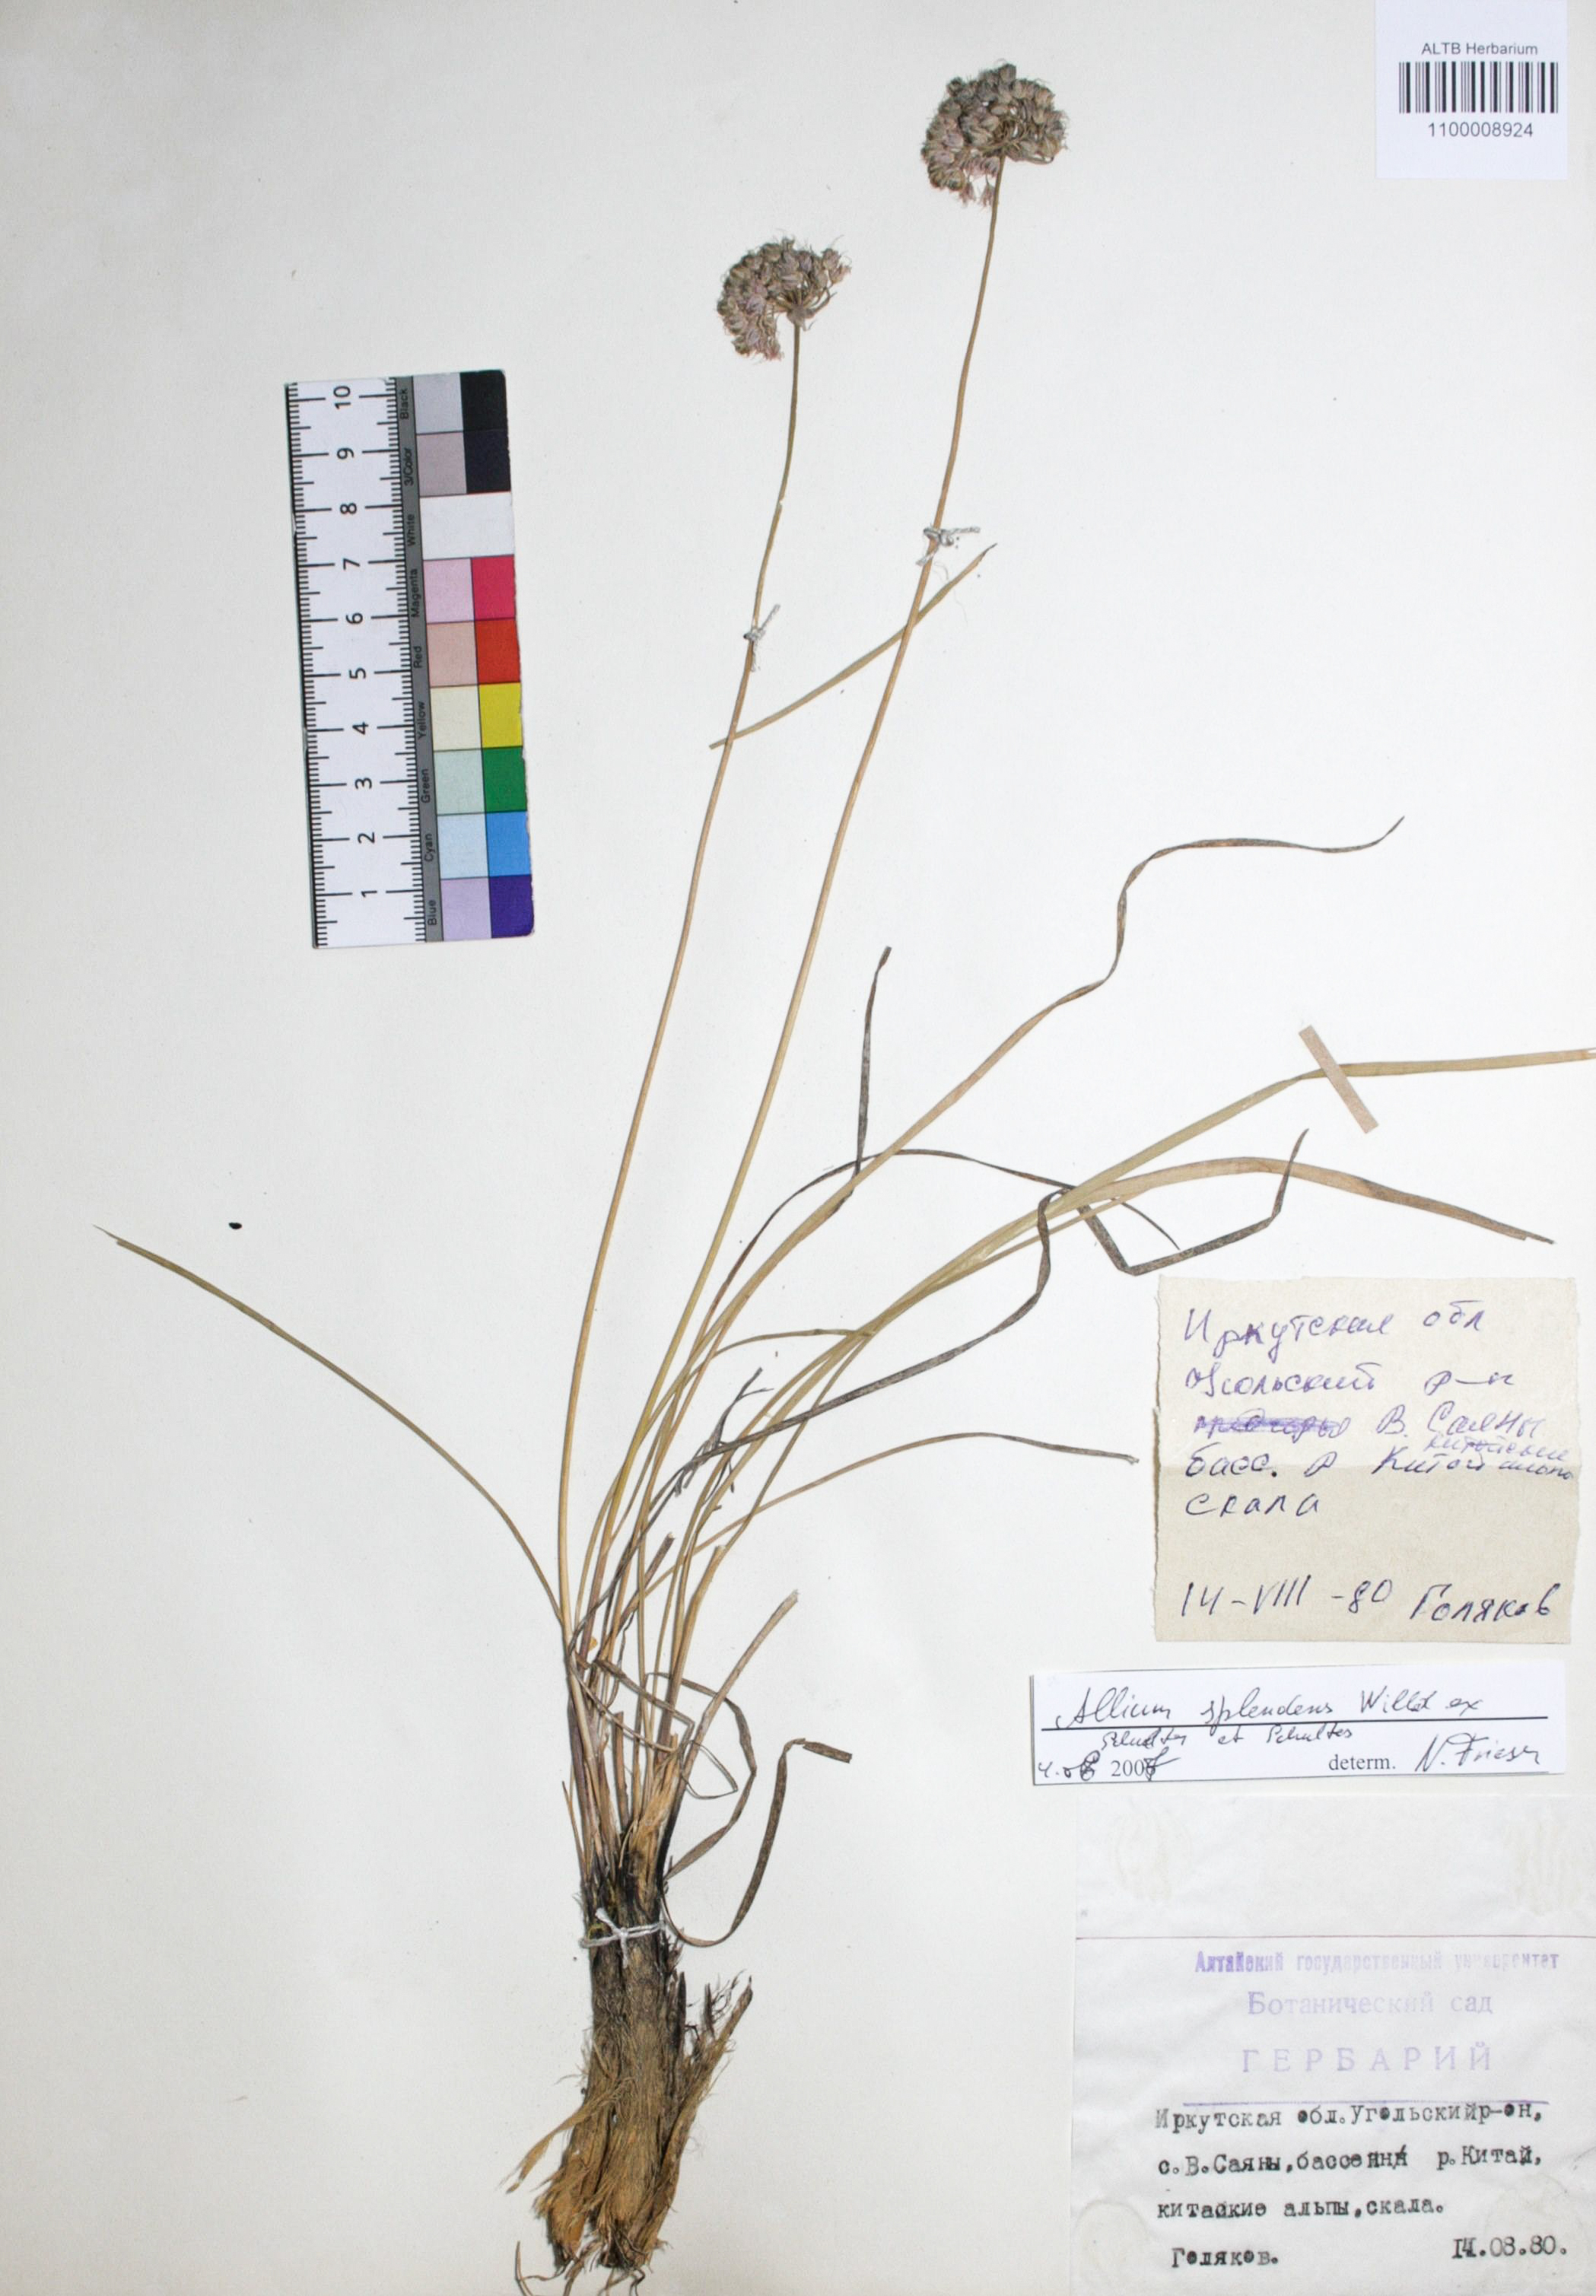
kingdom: Plantae
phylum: Tracheophyta
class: Liliopsida
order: Asparagales
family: Amaryllidaceae
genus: Allium
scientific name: Allium splendens
